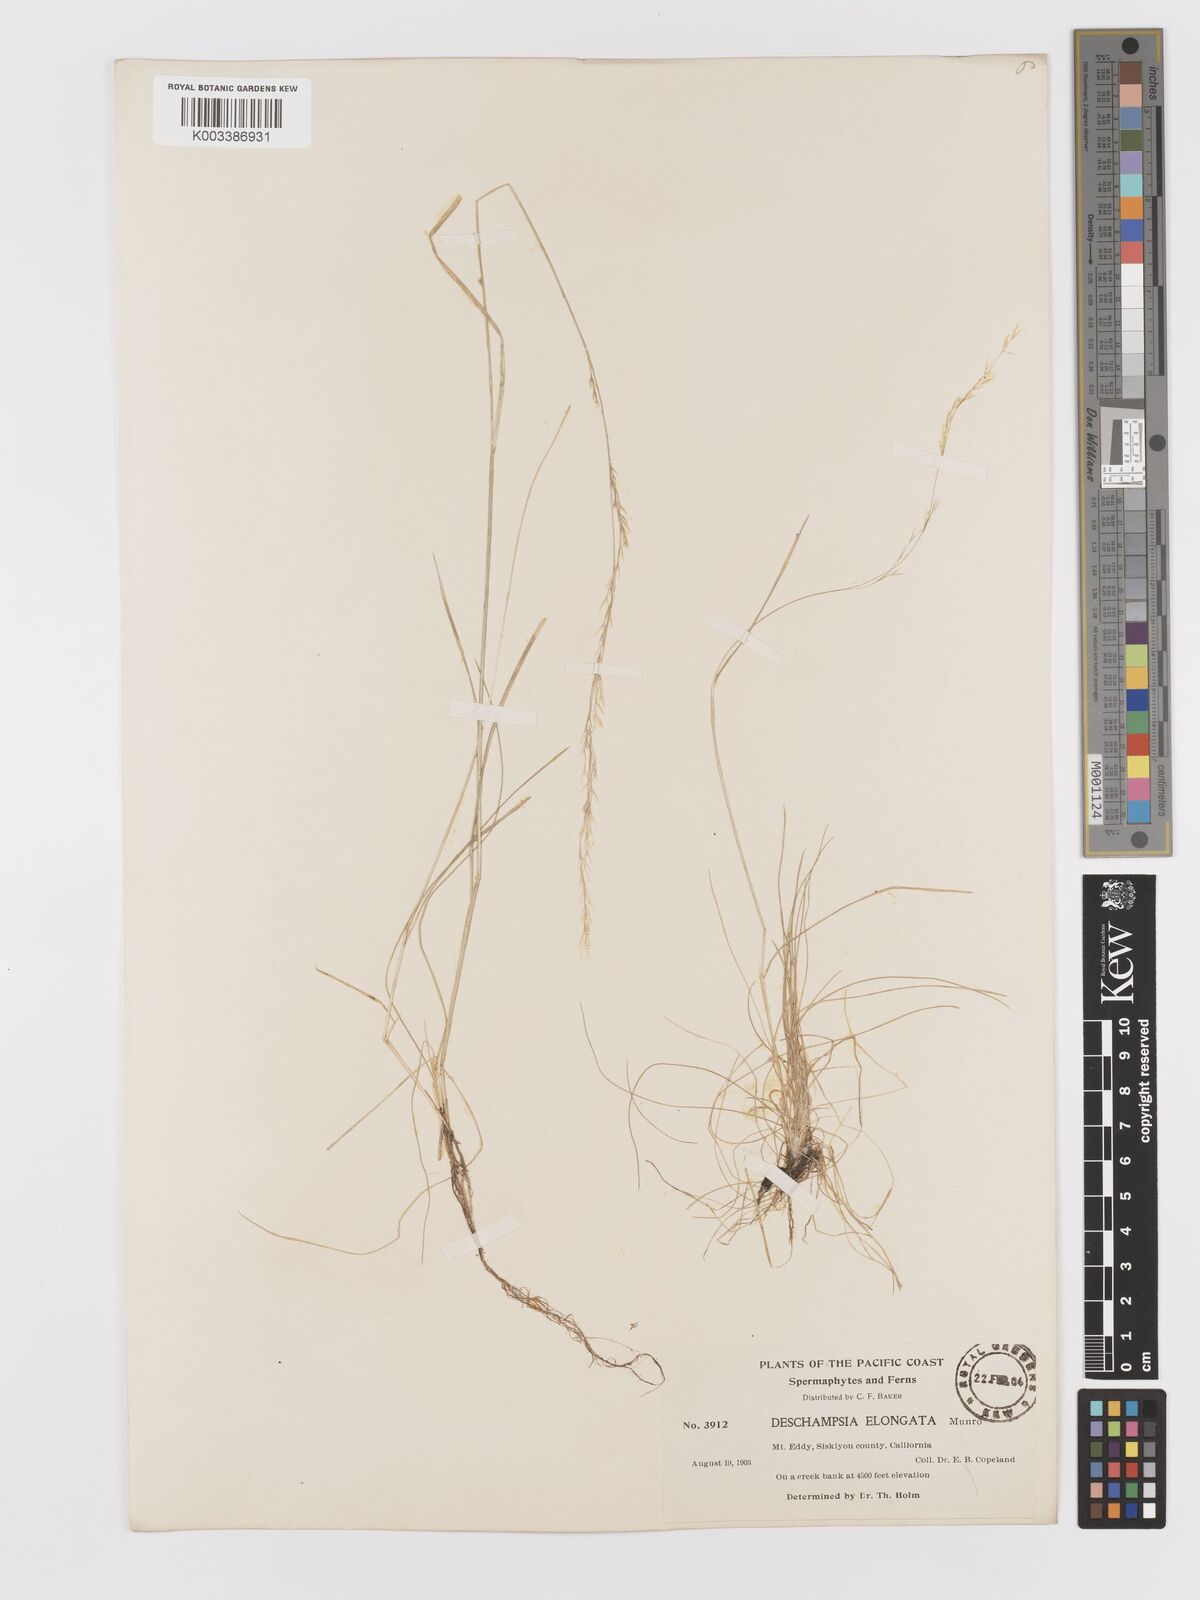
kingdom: Plantae
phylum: Tracheophyta
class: Liliopsida
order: Poales
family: Poaceae
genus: Deschampsia
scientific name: Deschampsia elongata
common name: Slender hairgrass
